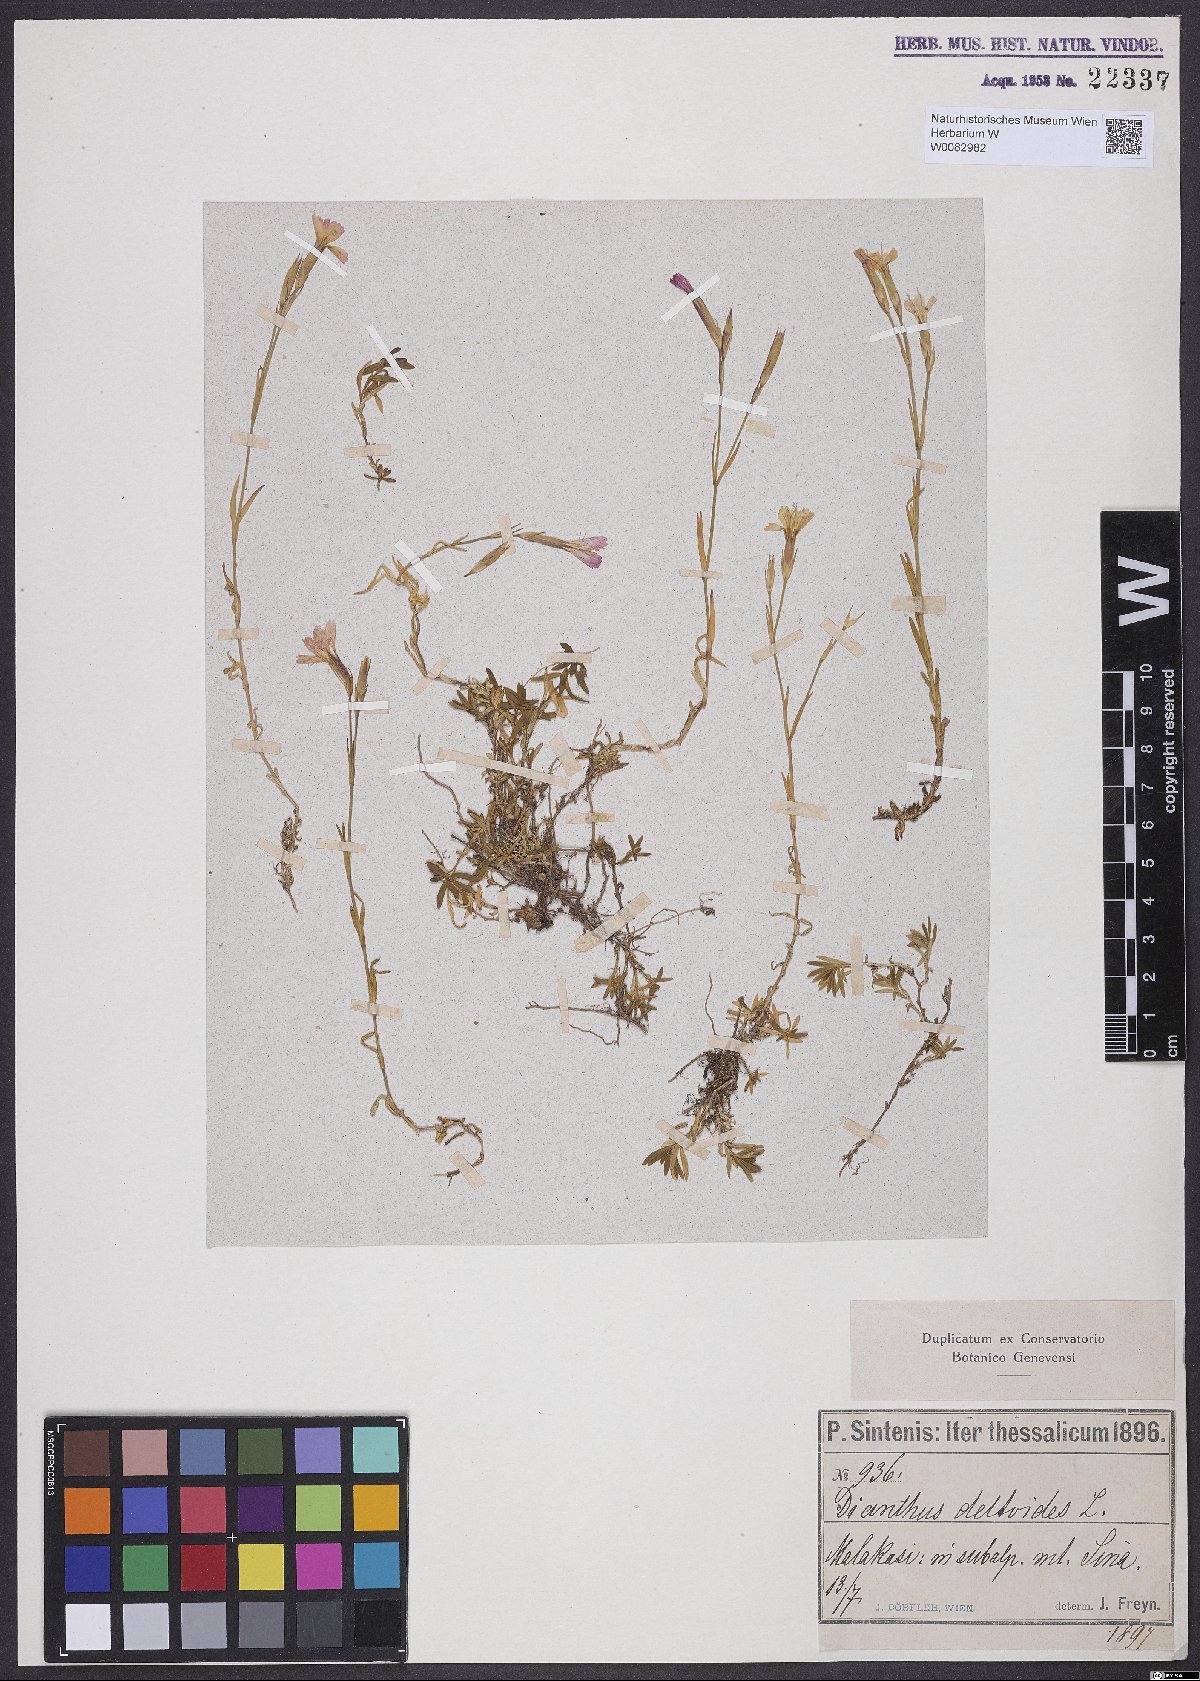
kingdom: Plantae
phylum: Tracheophyta
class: Magnoliopsida
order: Caryophyllales
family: Caryophyllaceae
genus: Dianthus
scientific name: Dianthus deltoides
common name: Maiden pink
